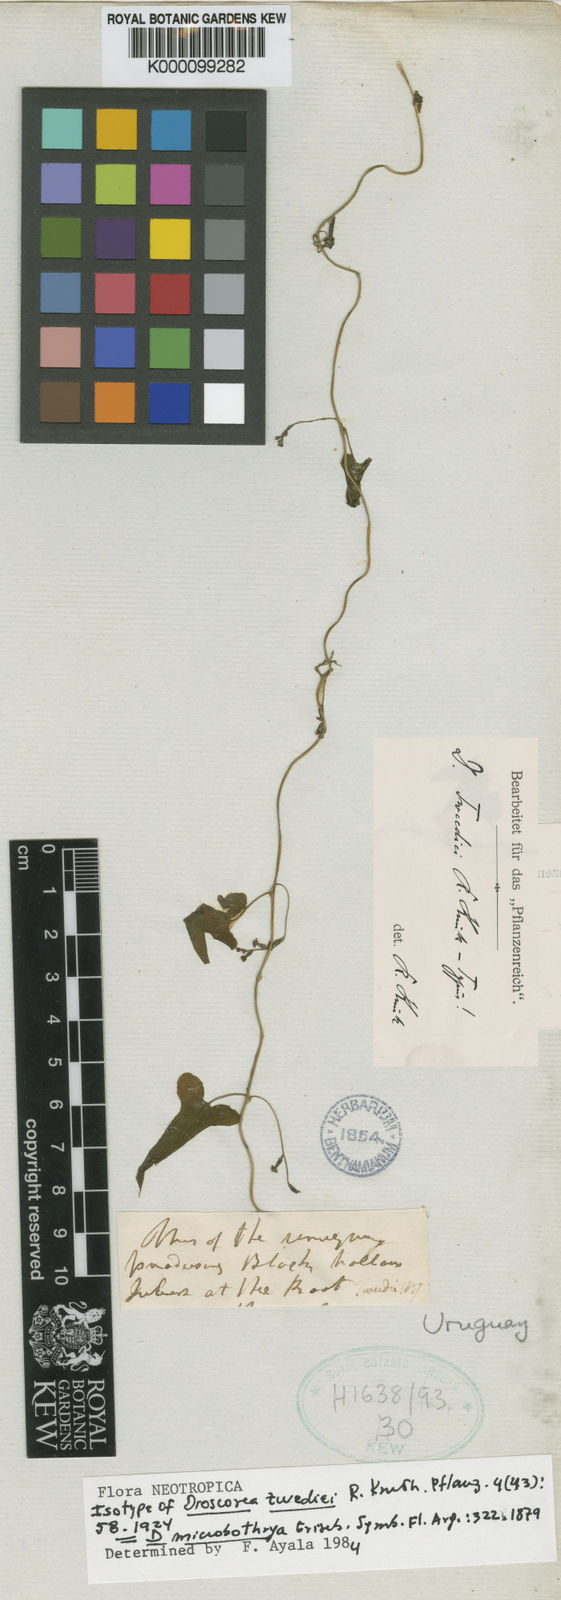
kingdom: Plantae
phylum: Tracheophyta
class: Liliopsida
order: Dioscoreales
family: Dioscoreaceae
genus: Dioscorea
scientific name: Dioscorea microbotrya
